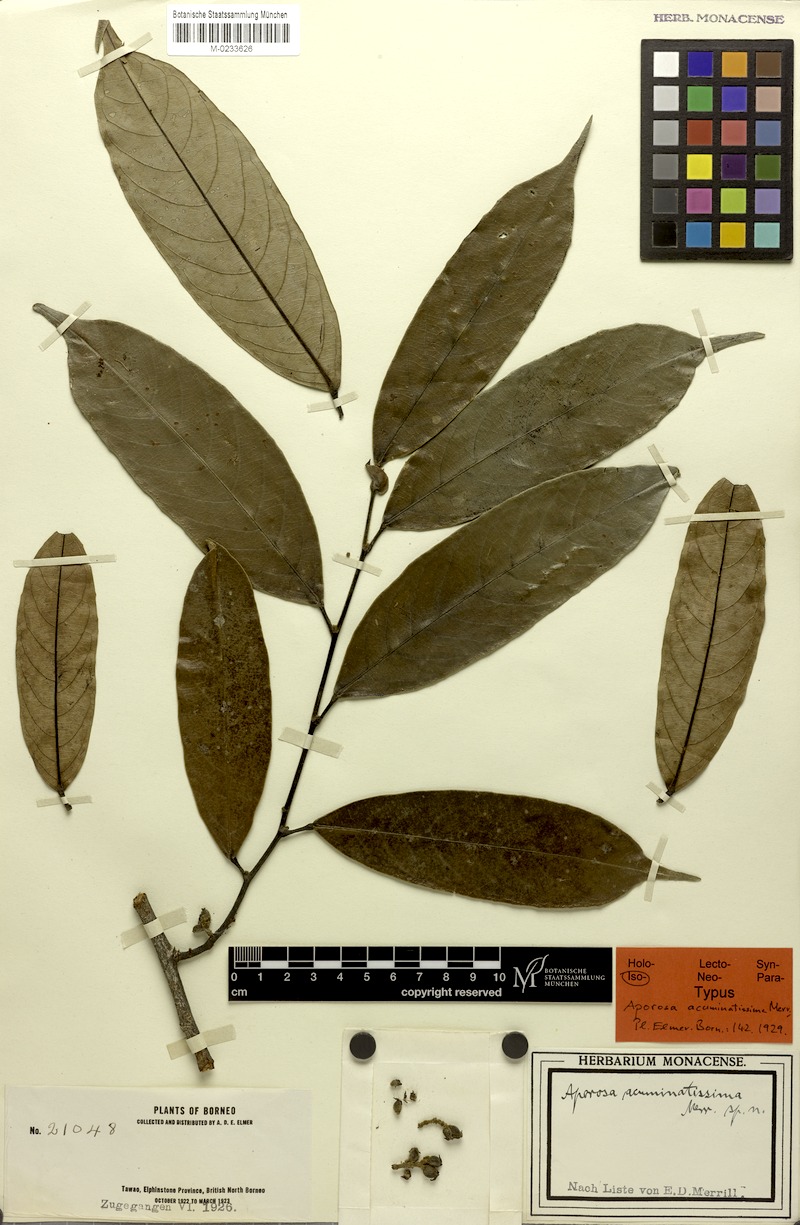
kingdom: Plantae
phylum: Tracheophyta
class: Magnoliopsida
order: Malpighiales
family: Phyllanthaceae
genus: Aporosa
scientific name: Aporosa sphaeridiophora
